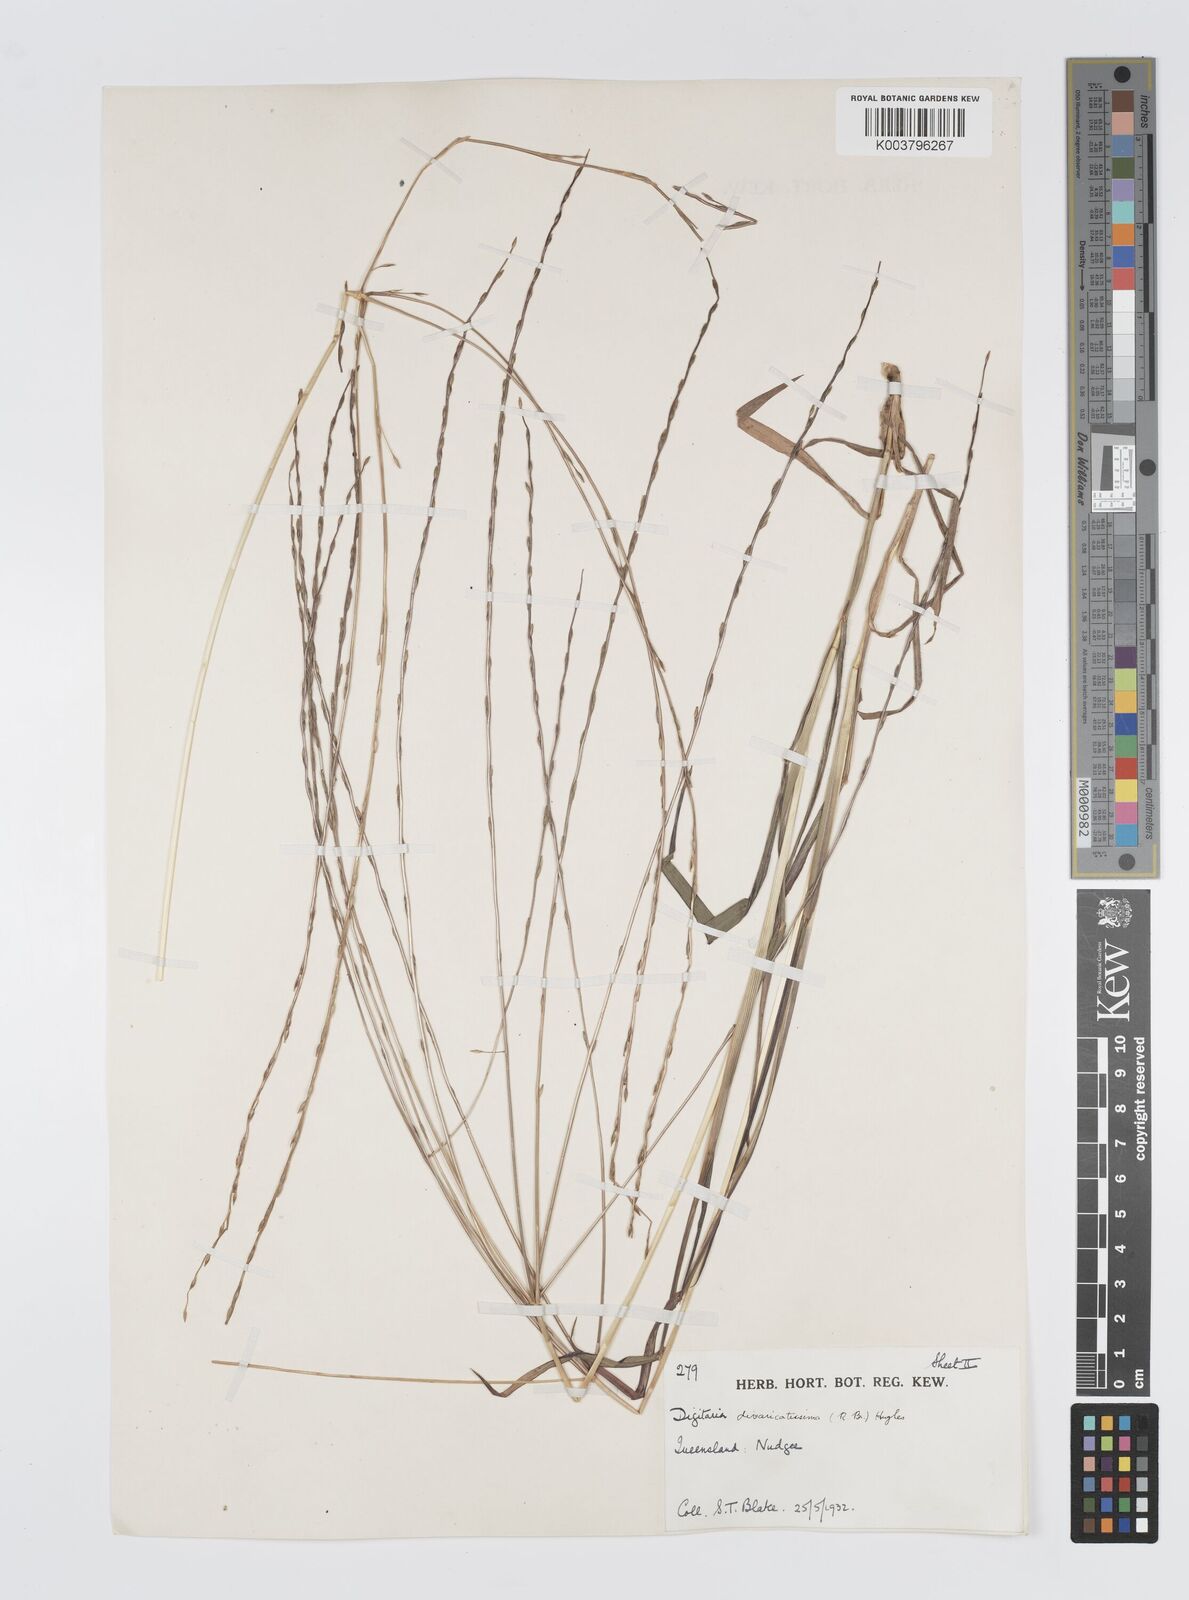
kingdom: Plantae
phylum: Tracheophyta
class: Liliopsida
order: Poales
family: Poaceae
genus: Digitaria
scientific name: Digitaria divaricatissima
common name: Crabgrass
